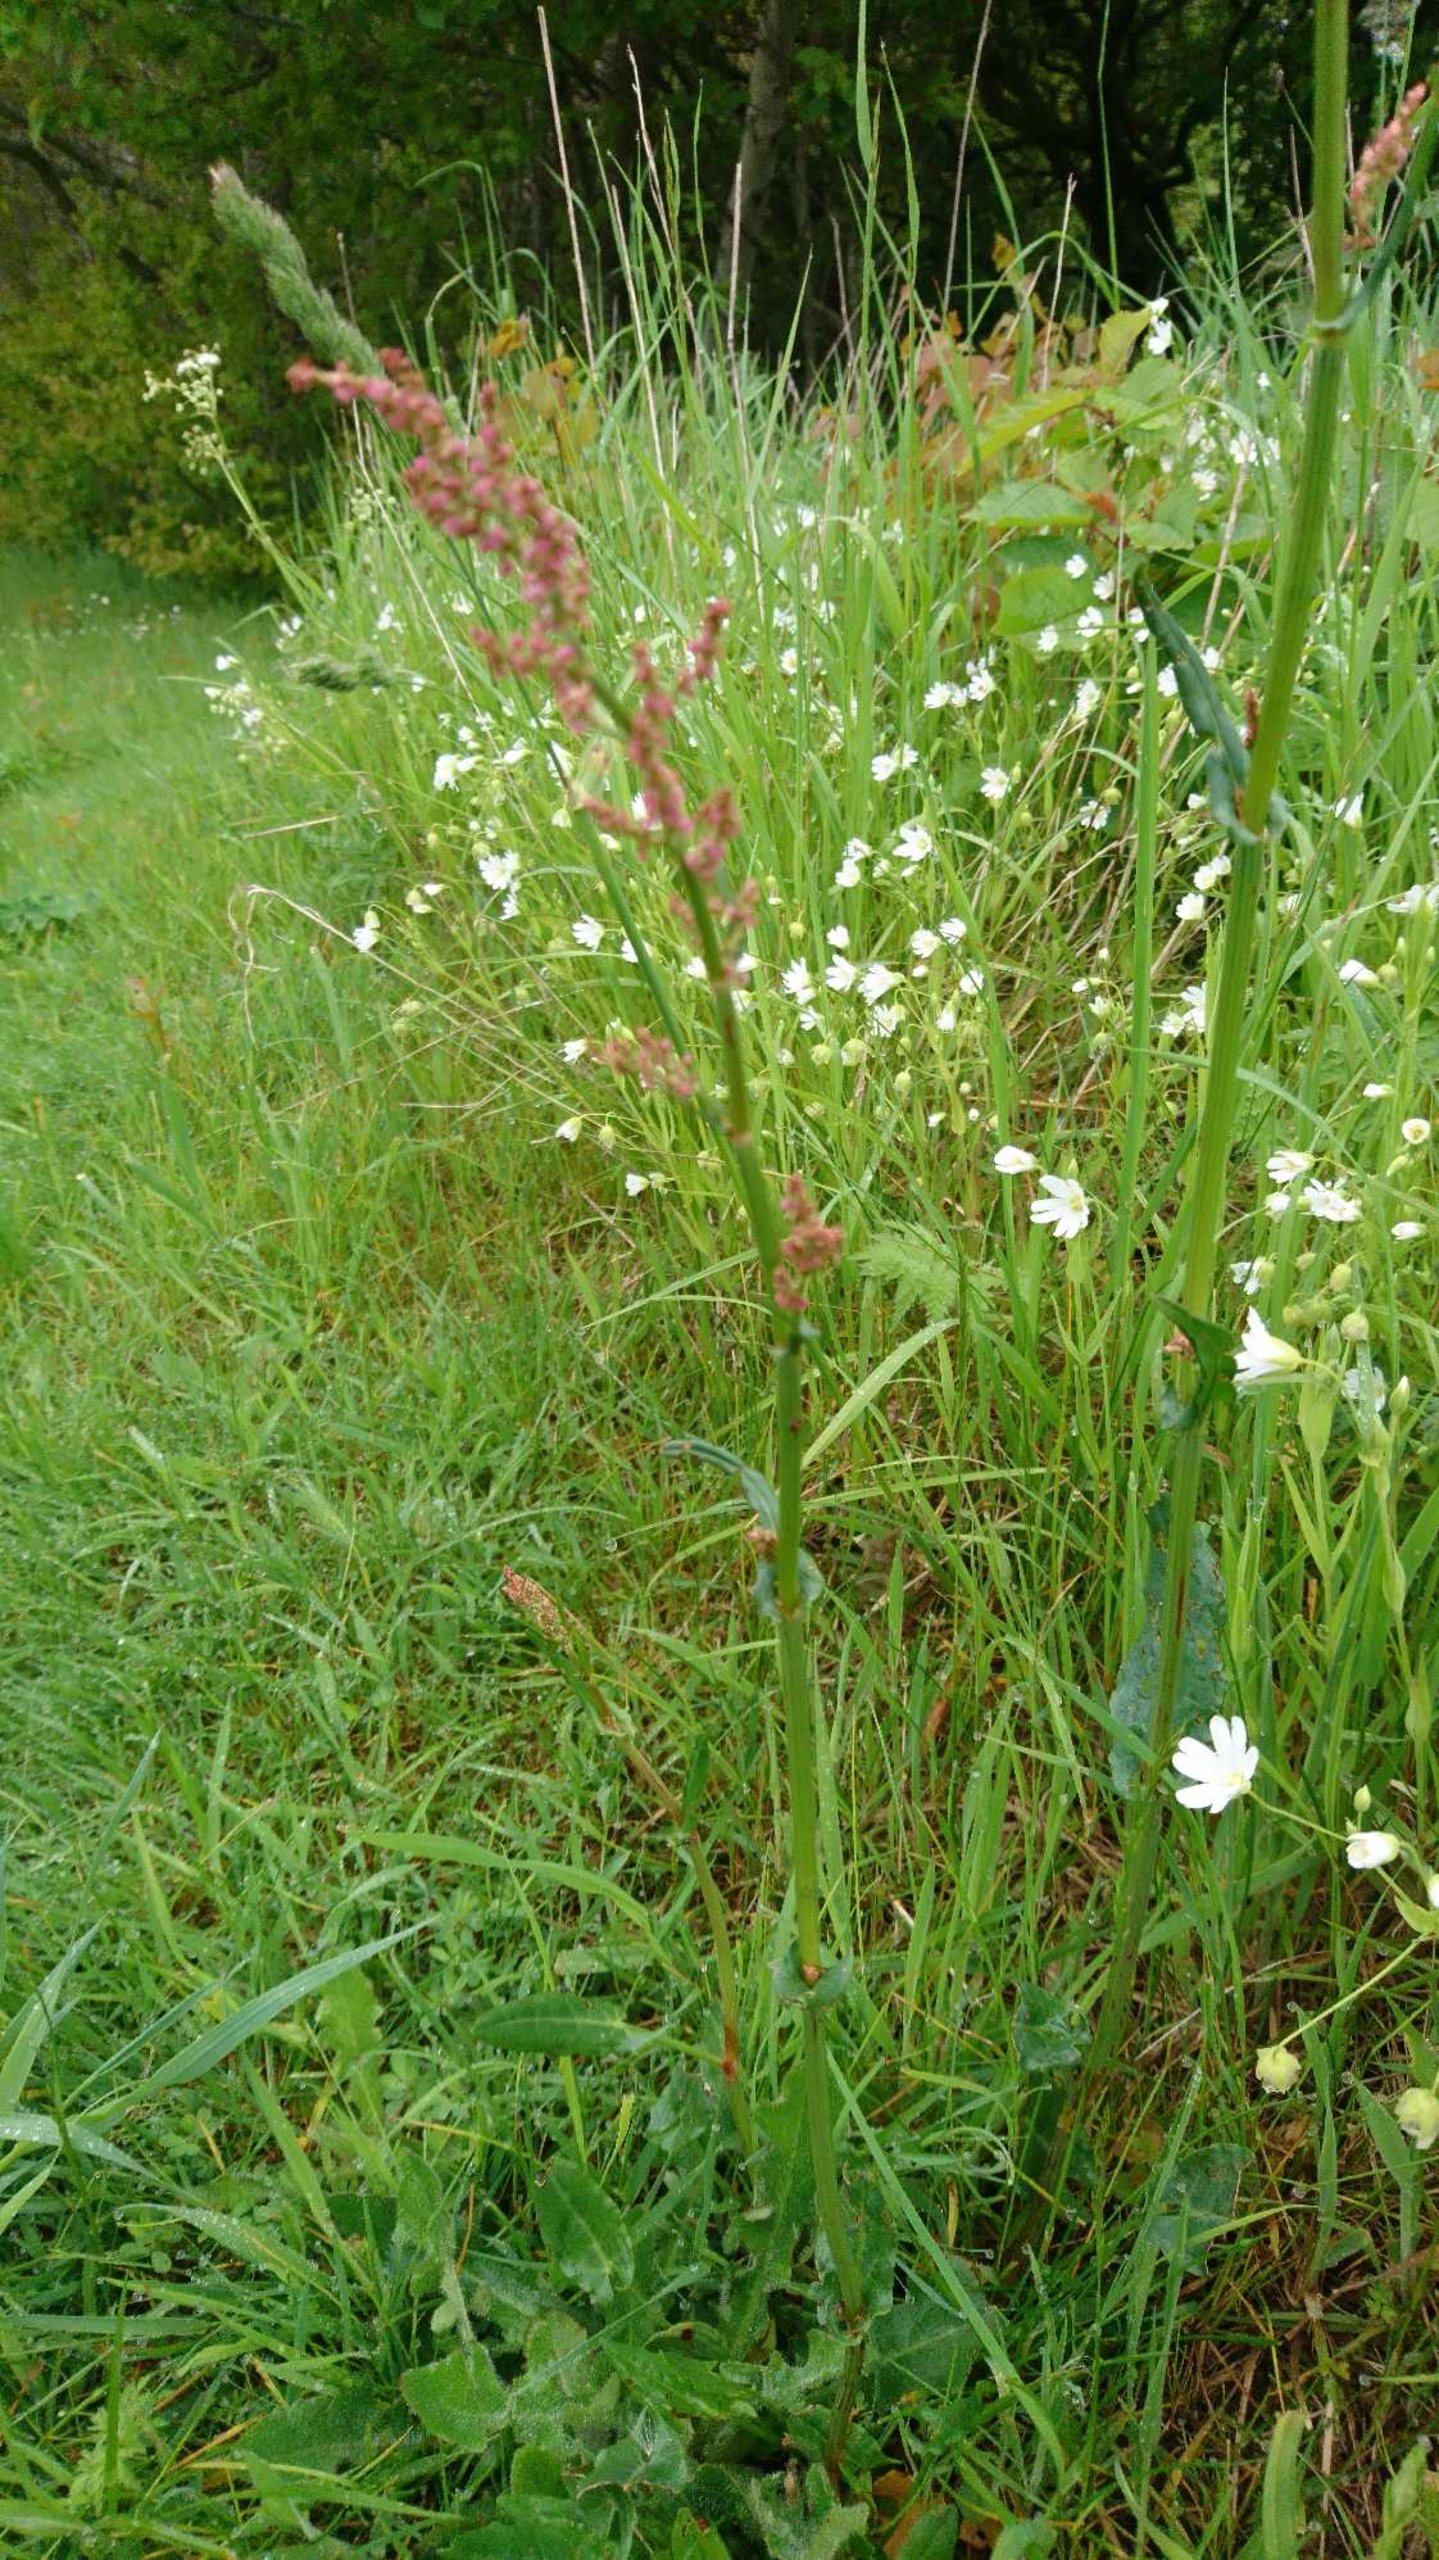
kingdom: Plantae
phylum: Tracheophyta
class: Magnoliopsida
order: Lamiales
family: Lamiaceae
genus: Glechoma
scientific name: Glechoma hederacea
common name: Korsknap
